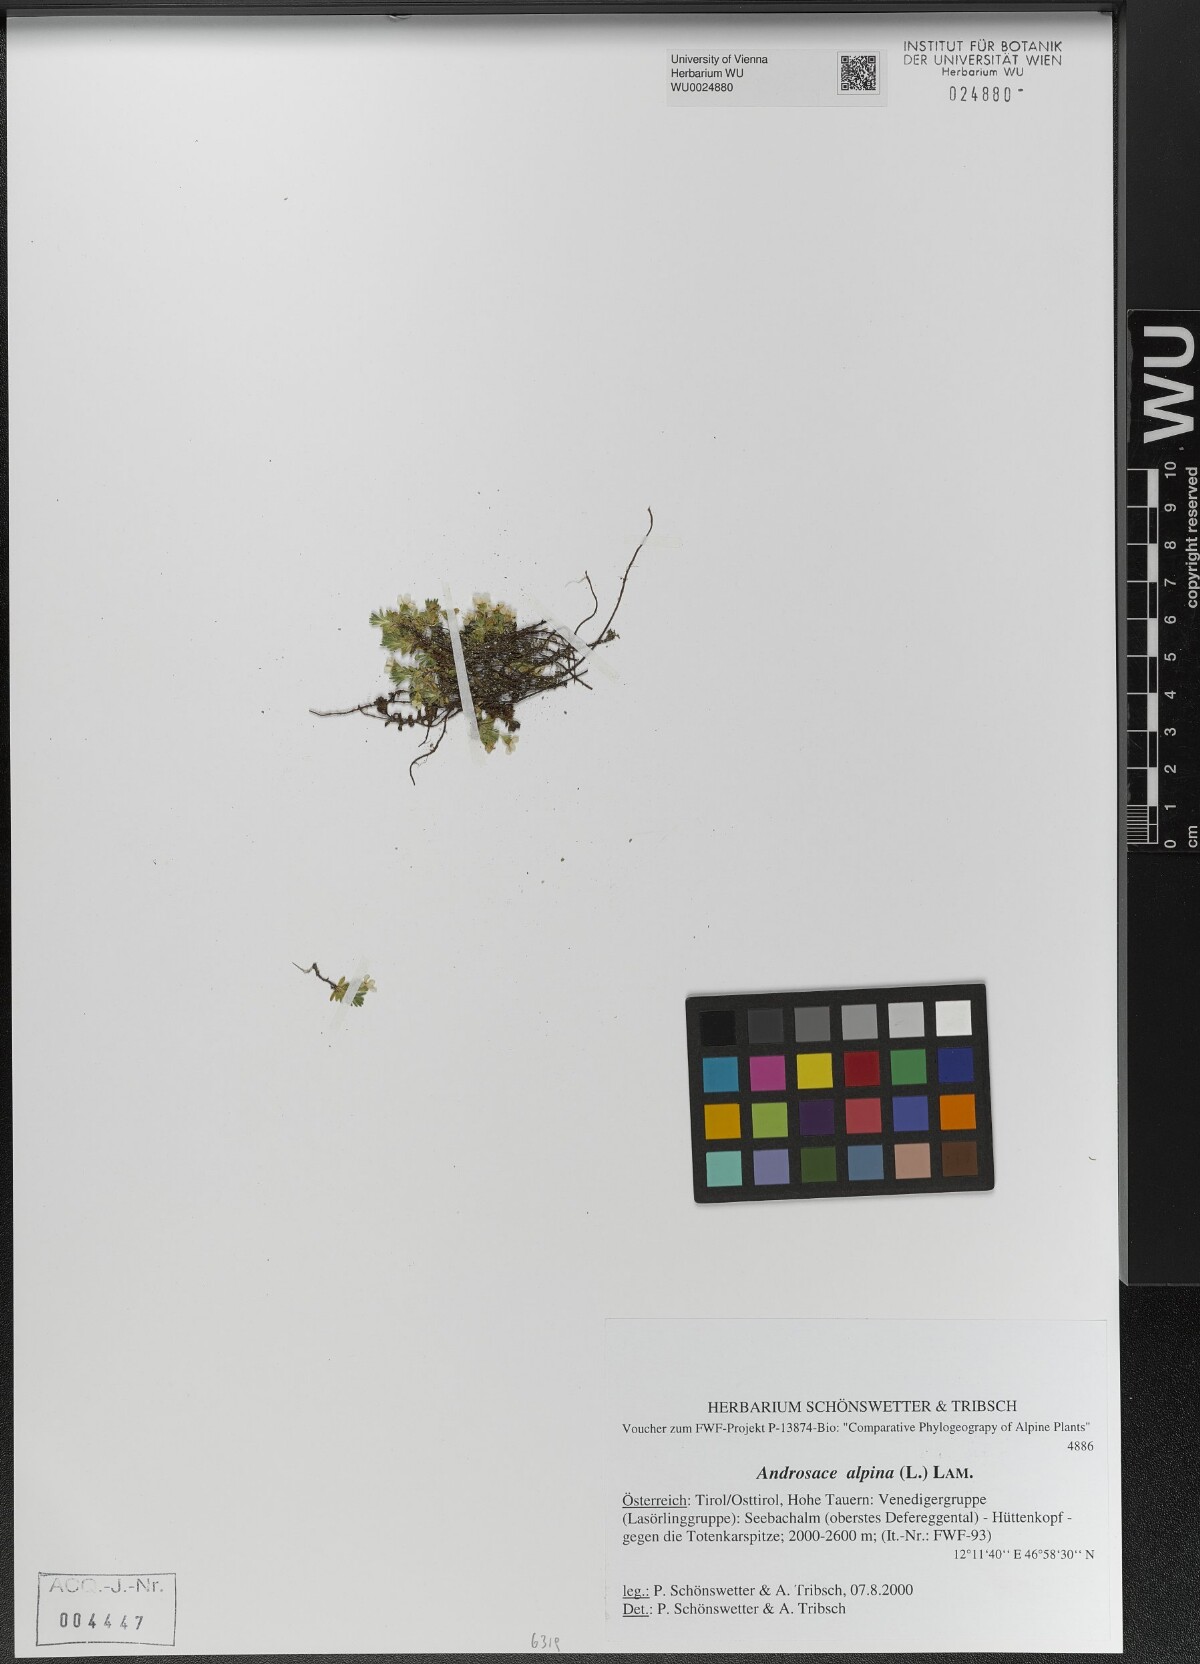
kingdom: Plantae
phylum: Tracheophyta
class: Magnoliopsida
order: Ericales
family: Primulaceae
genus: Androsace
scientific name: Androsace alpina
